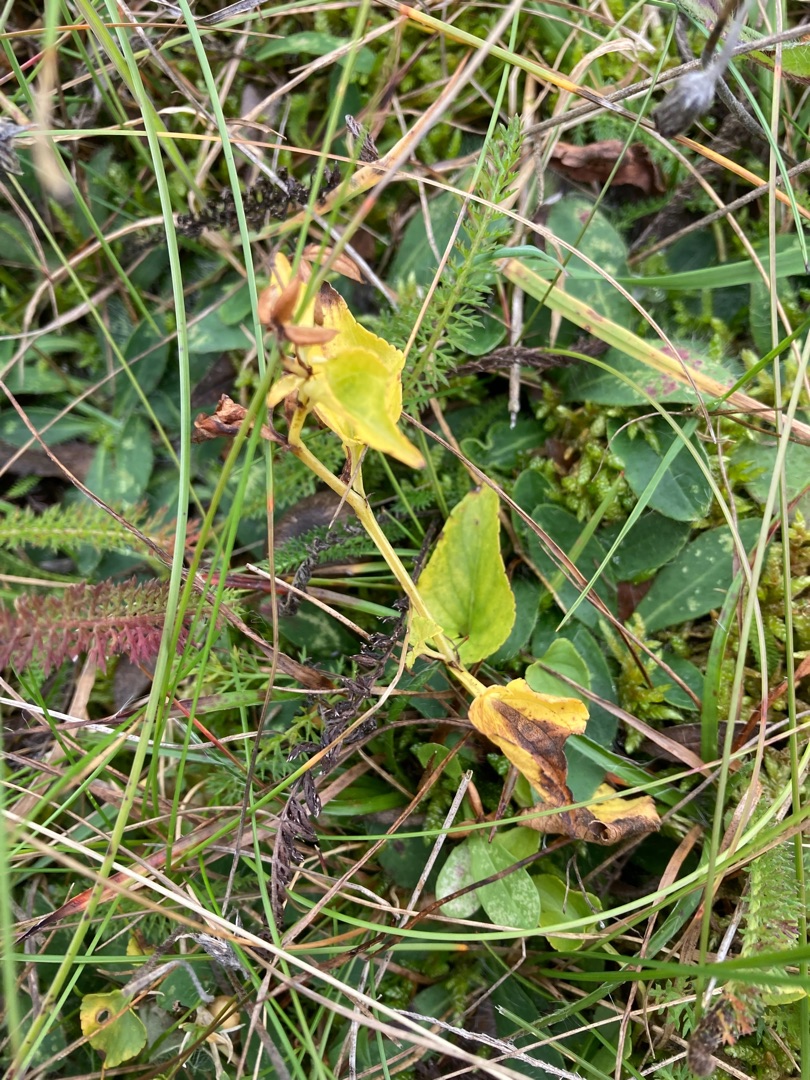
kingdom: Plantae
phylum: Tracheophyta
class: Magnoliopsida
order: Malpighiales
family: Violaceae
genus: Viola
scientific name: Viola canina
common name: Hunde-viol
